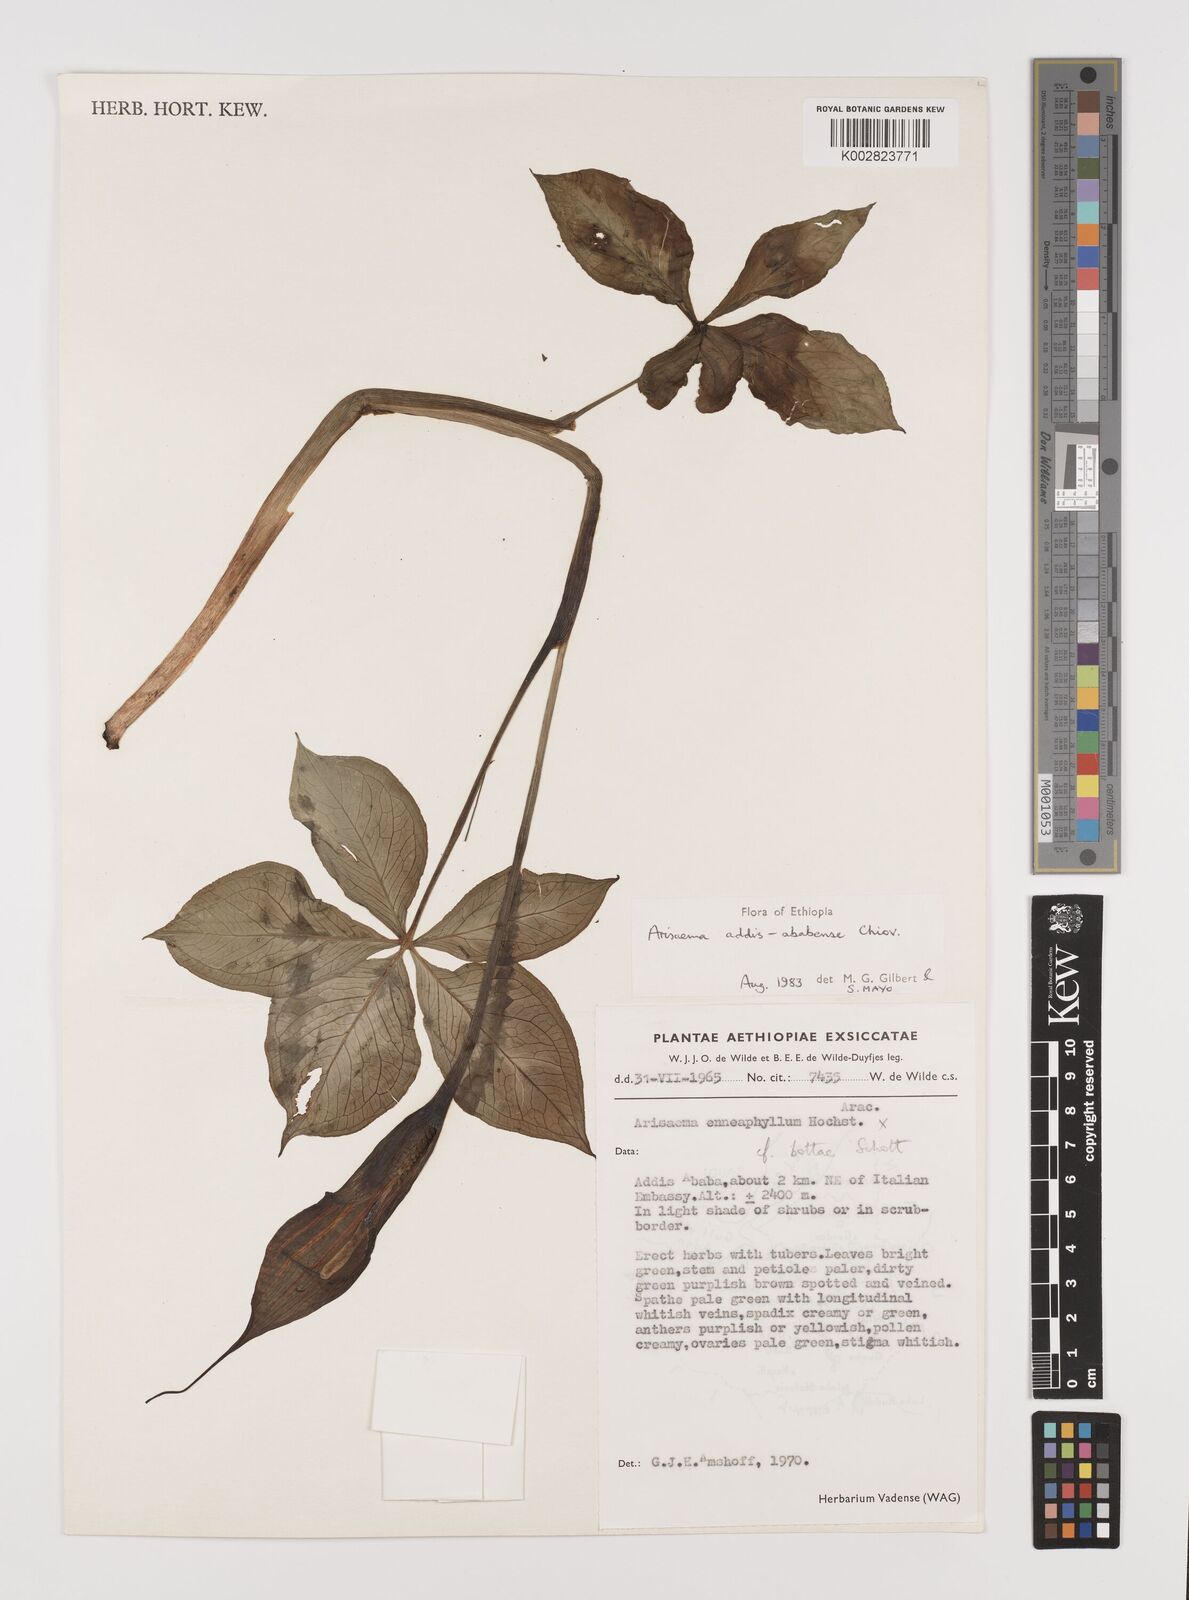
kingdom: Plantae
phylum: Tracheophyta
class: Liliopsida
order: Alismatales
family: Araceae
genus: Arisaema
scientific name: Arisaema schimperianum
